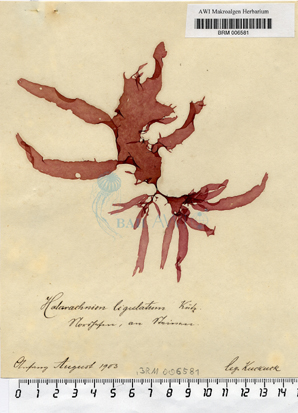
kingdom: Plantae
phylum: Rhodophyta
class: Florideophyceae
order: Gigartinales
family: Furcellariaceae
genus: Halarachnion
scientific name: Halarachnion ligulatum
